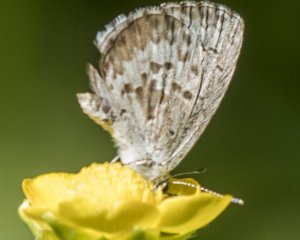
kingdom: Animalia
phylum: Arthropoda
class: Insecta
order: Lepidoptera
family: Lycaenidae
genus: Celastrina
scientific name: Celastrina lucia
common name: Northern Spring Azure
